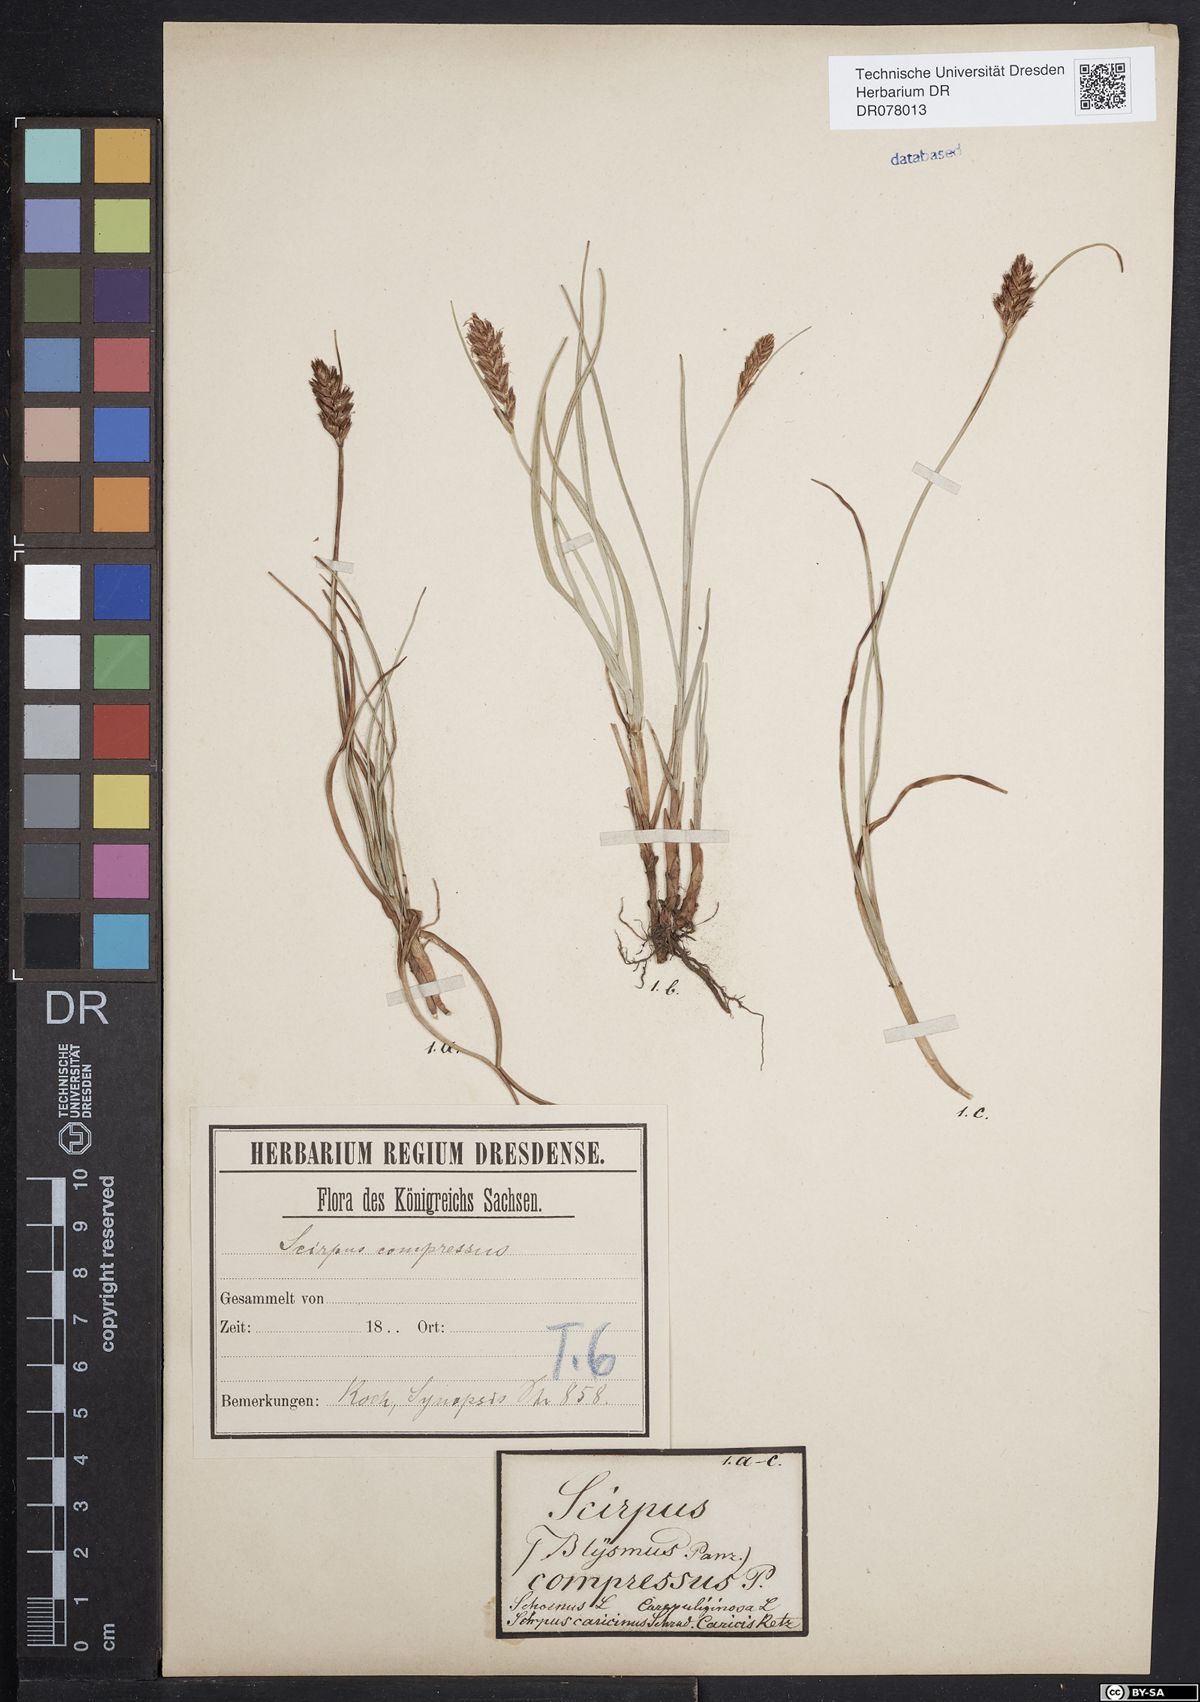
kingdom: Plantae
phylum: Tracheophyta
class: Liliopsida
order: Poales
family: Cyperaceae
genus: Blysmus
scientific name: Blysmus compressus
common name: Flat-sedge
